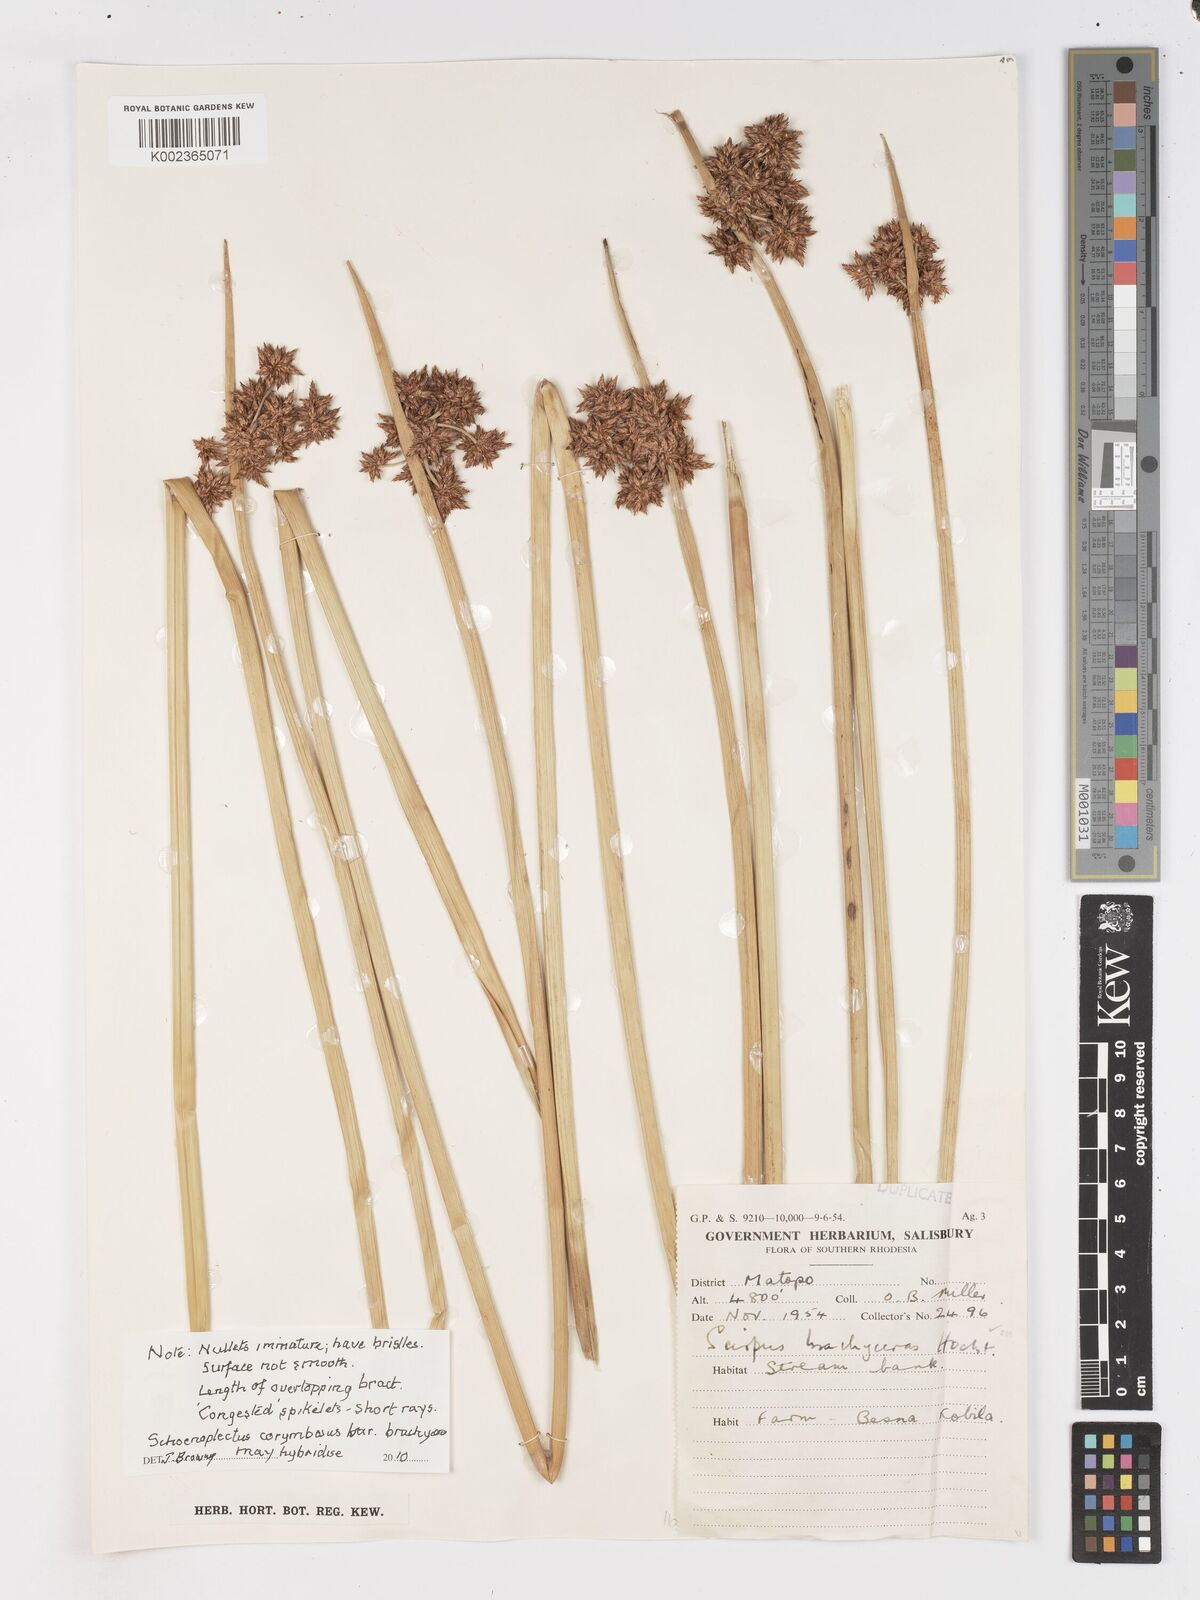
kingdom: Plantae
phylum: Tracheophyta
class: Liliopsida
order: Poales
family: Cyperaceae
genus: Schoenoplectiella
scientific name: Schoenoplectiella brachyceras
